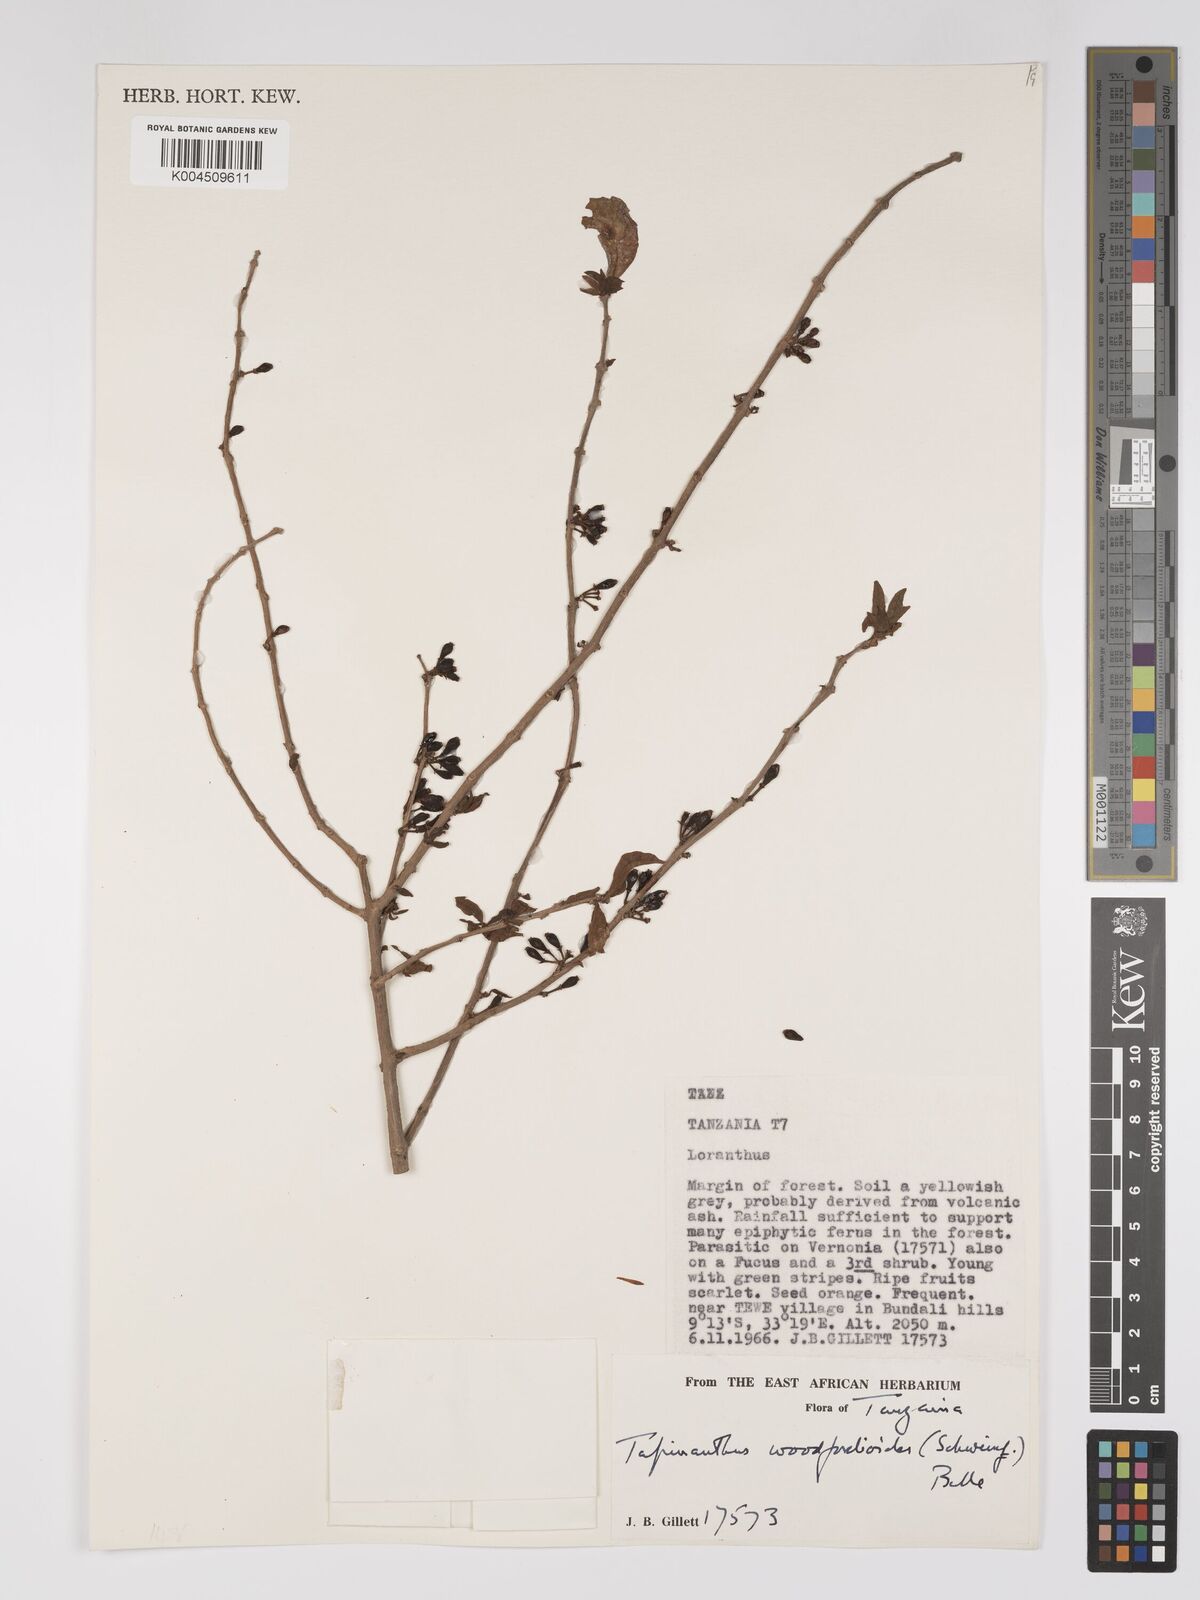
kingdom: Plantae
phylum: Tracheophyta
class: Magnoliopsida
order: Santalales
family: Loranthaceae
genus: Englerina
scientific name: Englerina inaequilatera
